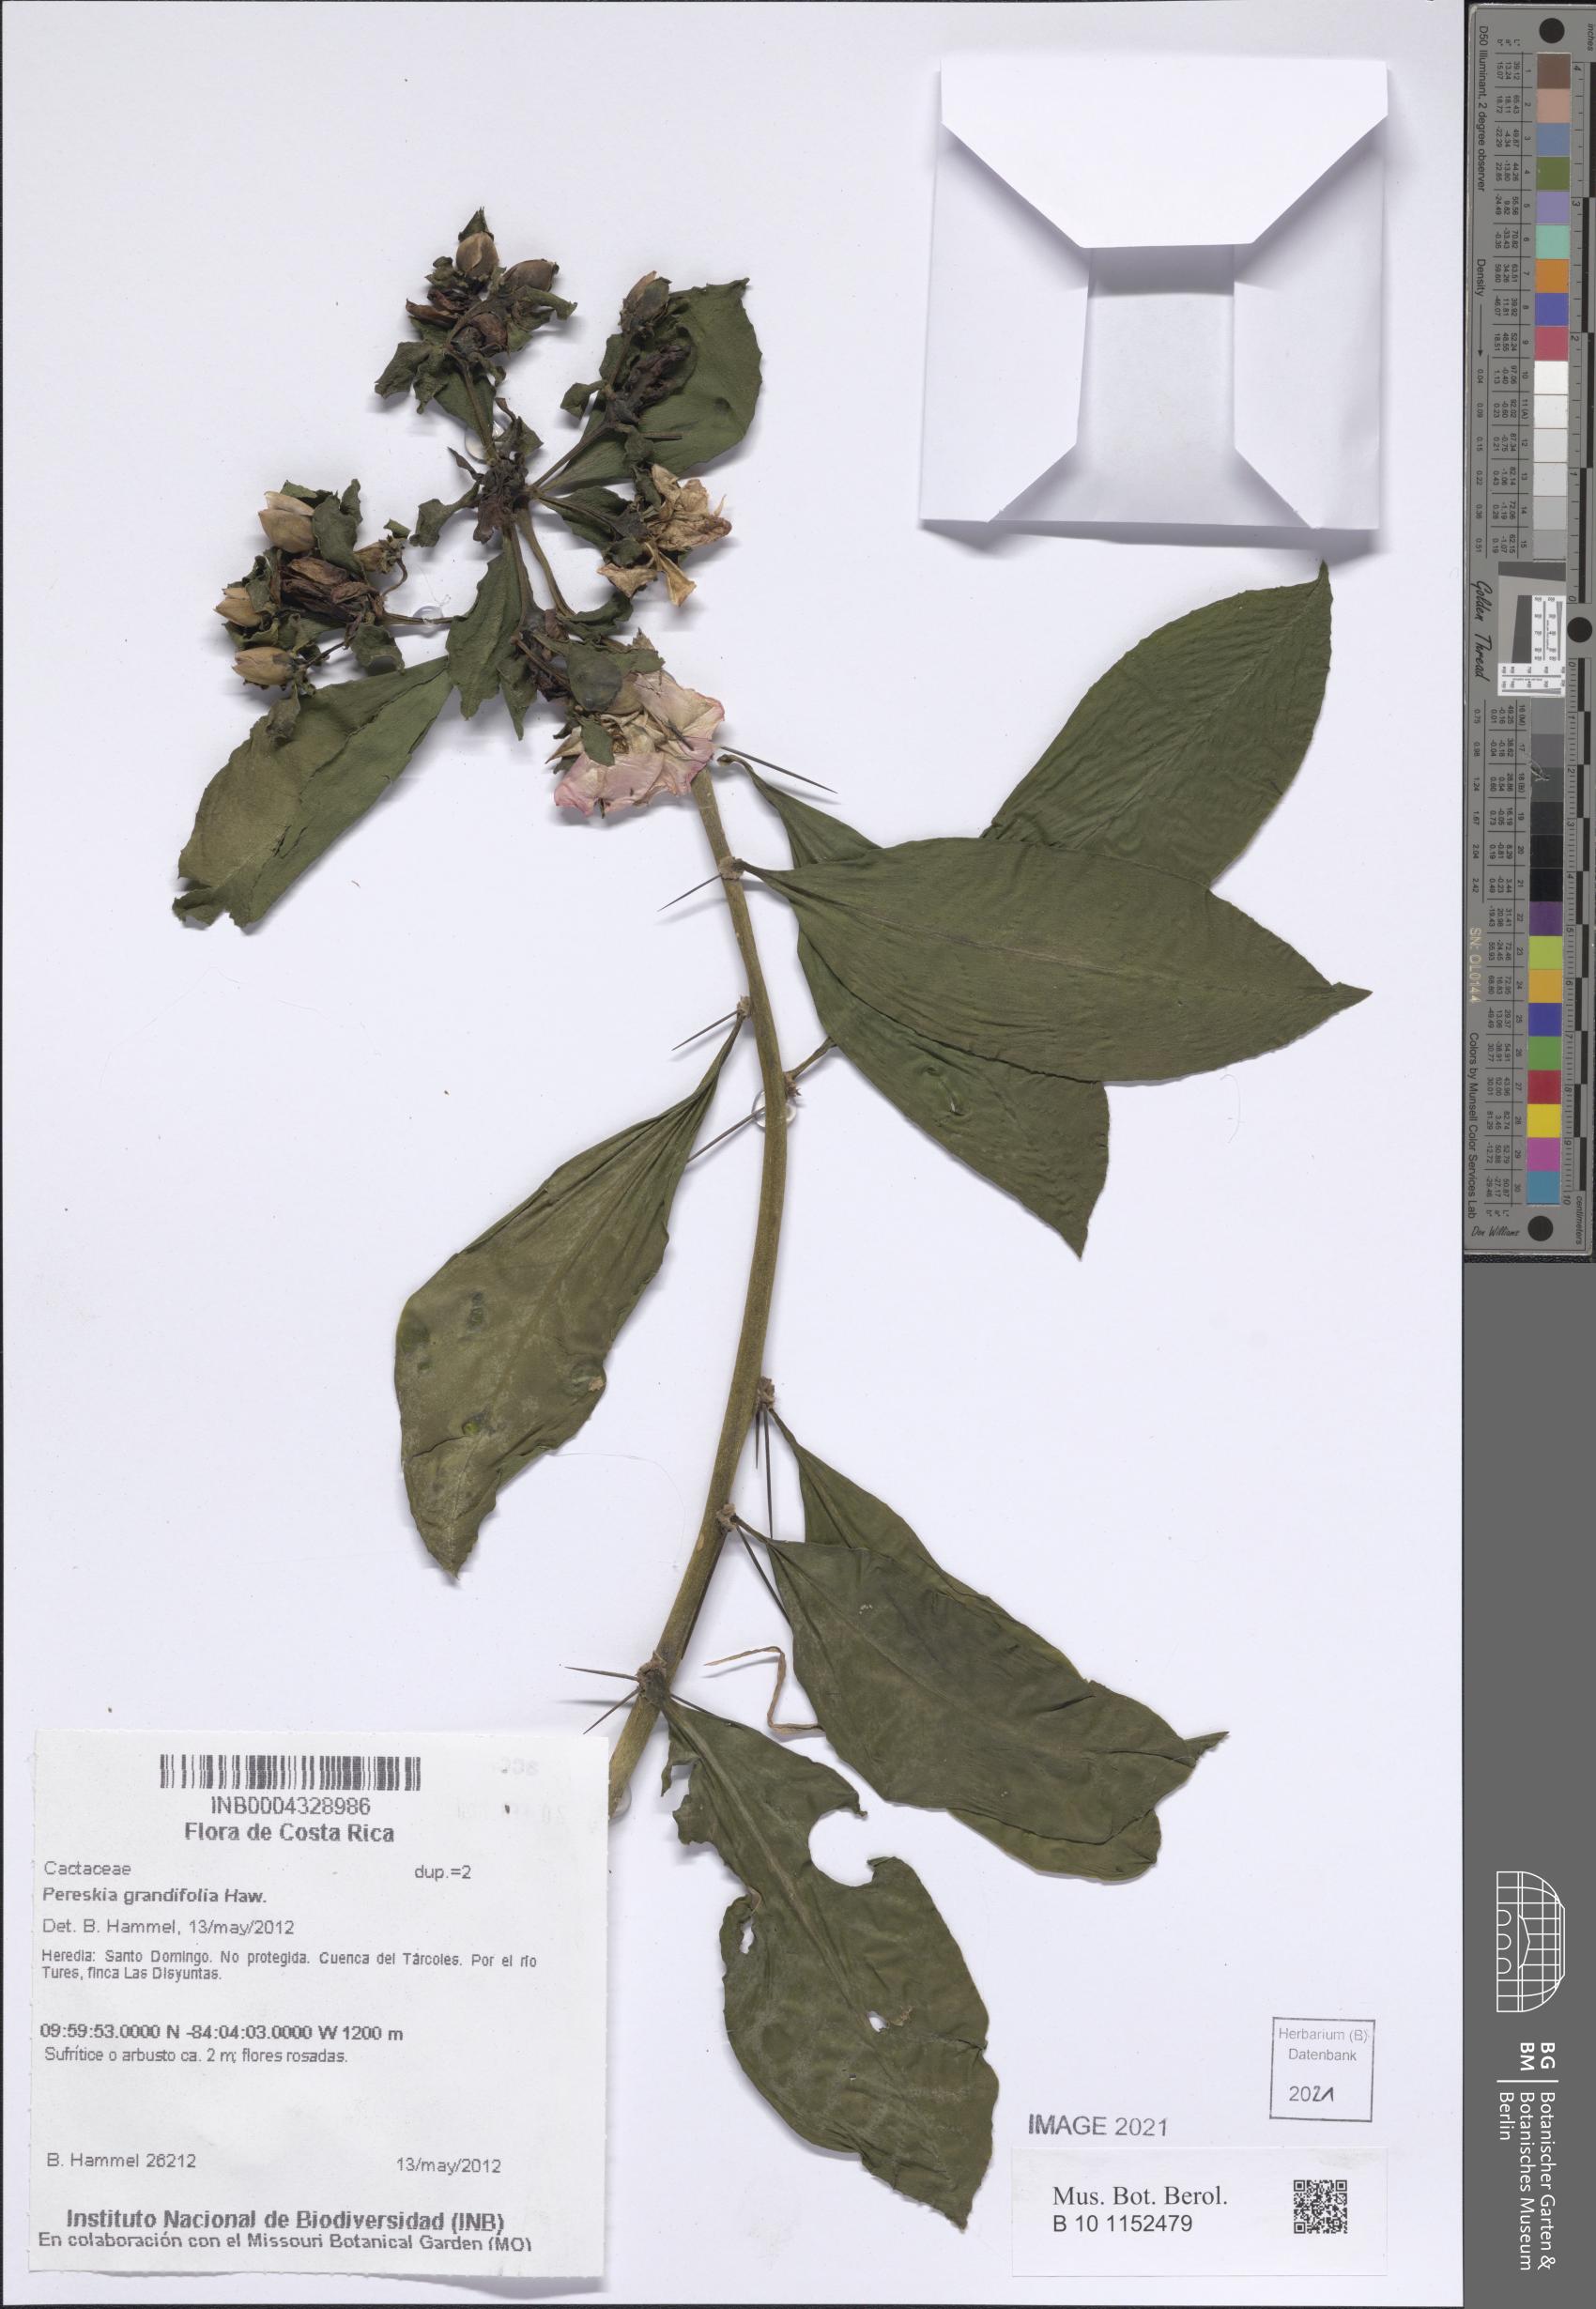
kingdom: Plantae
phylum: Tracheophyta
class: Magnoliopsida
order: Caryophyllales
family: Cactaceae
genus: Pereskia
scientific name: Pereskia grandifolia
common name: Rose cactus
